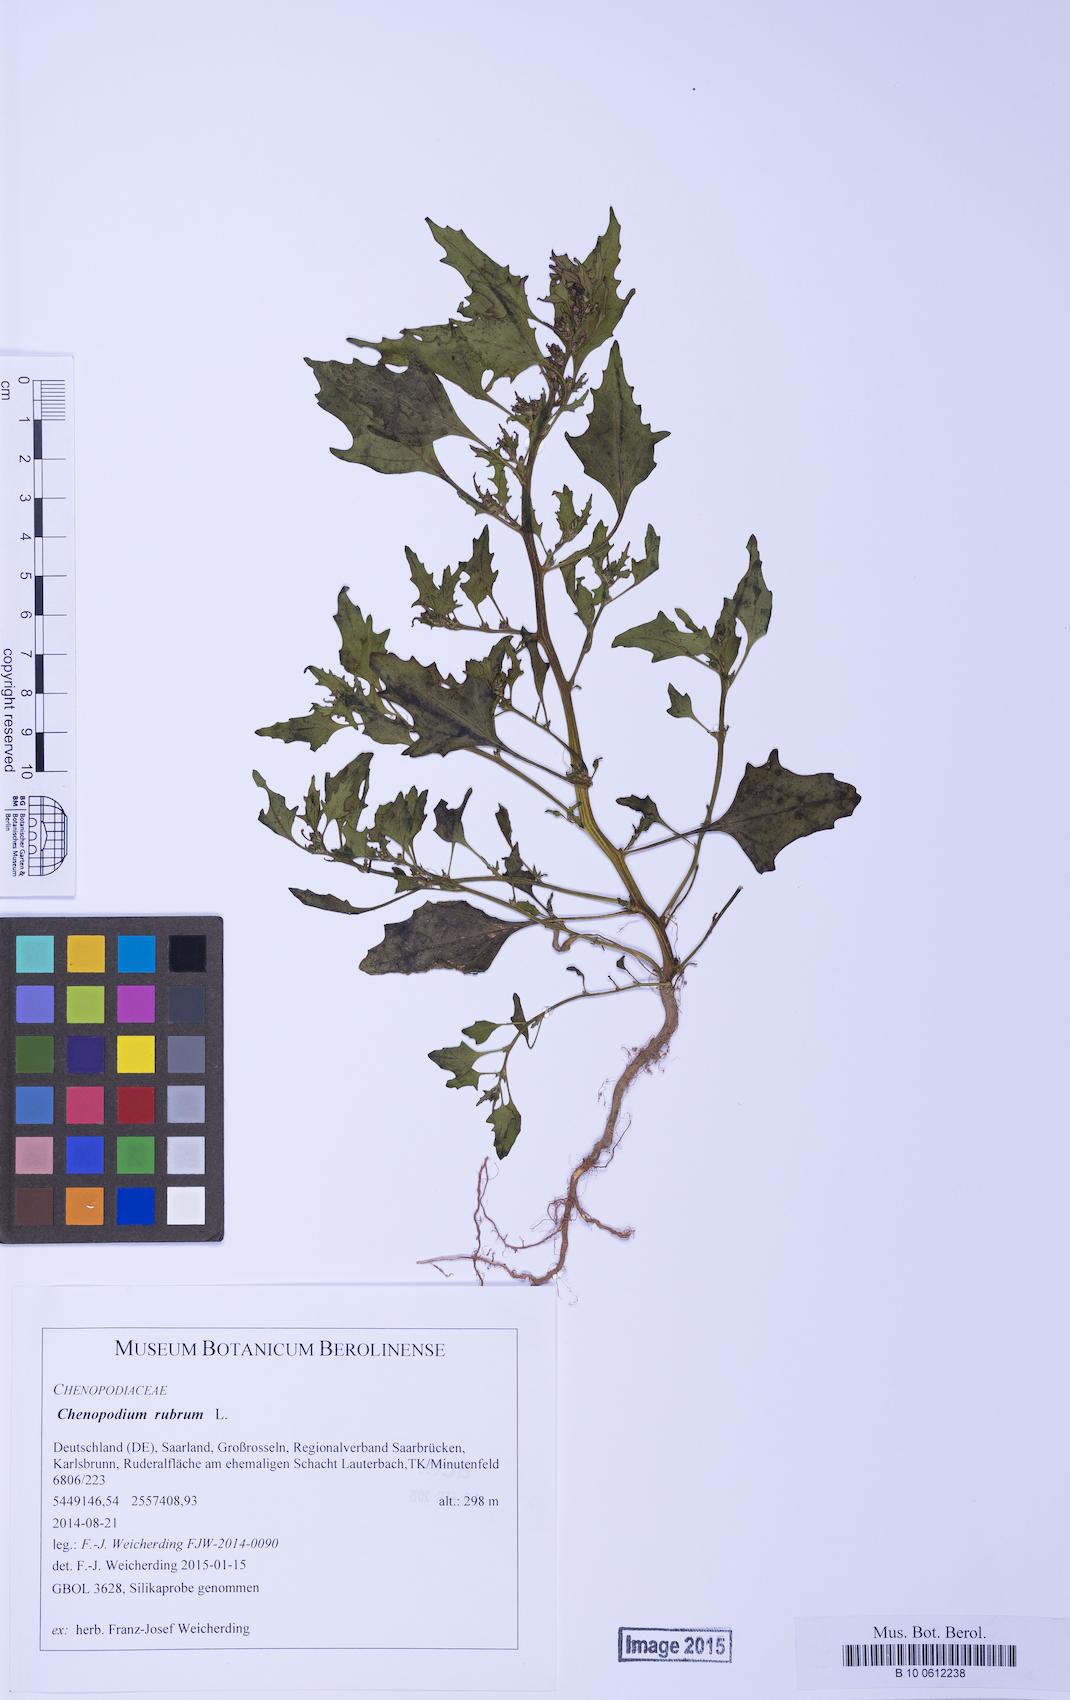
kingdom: Plantae
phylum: Tracheophyta
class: Magnoliopsida
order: Caryophyllales
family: Amaranthaceae
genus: Oxybasis
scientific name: Oxybasis rubra
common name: Red goosefoot
